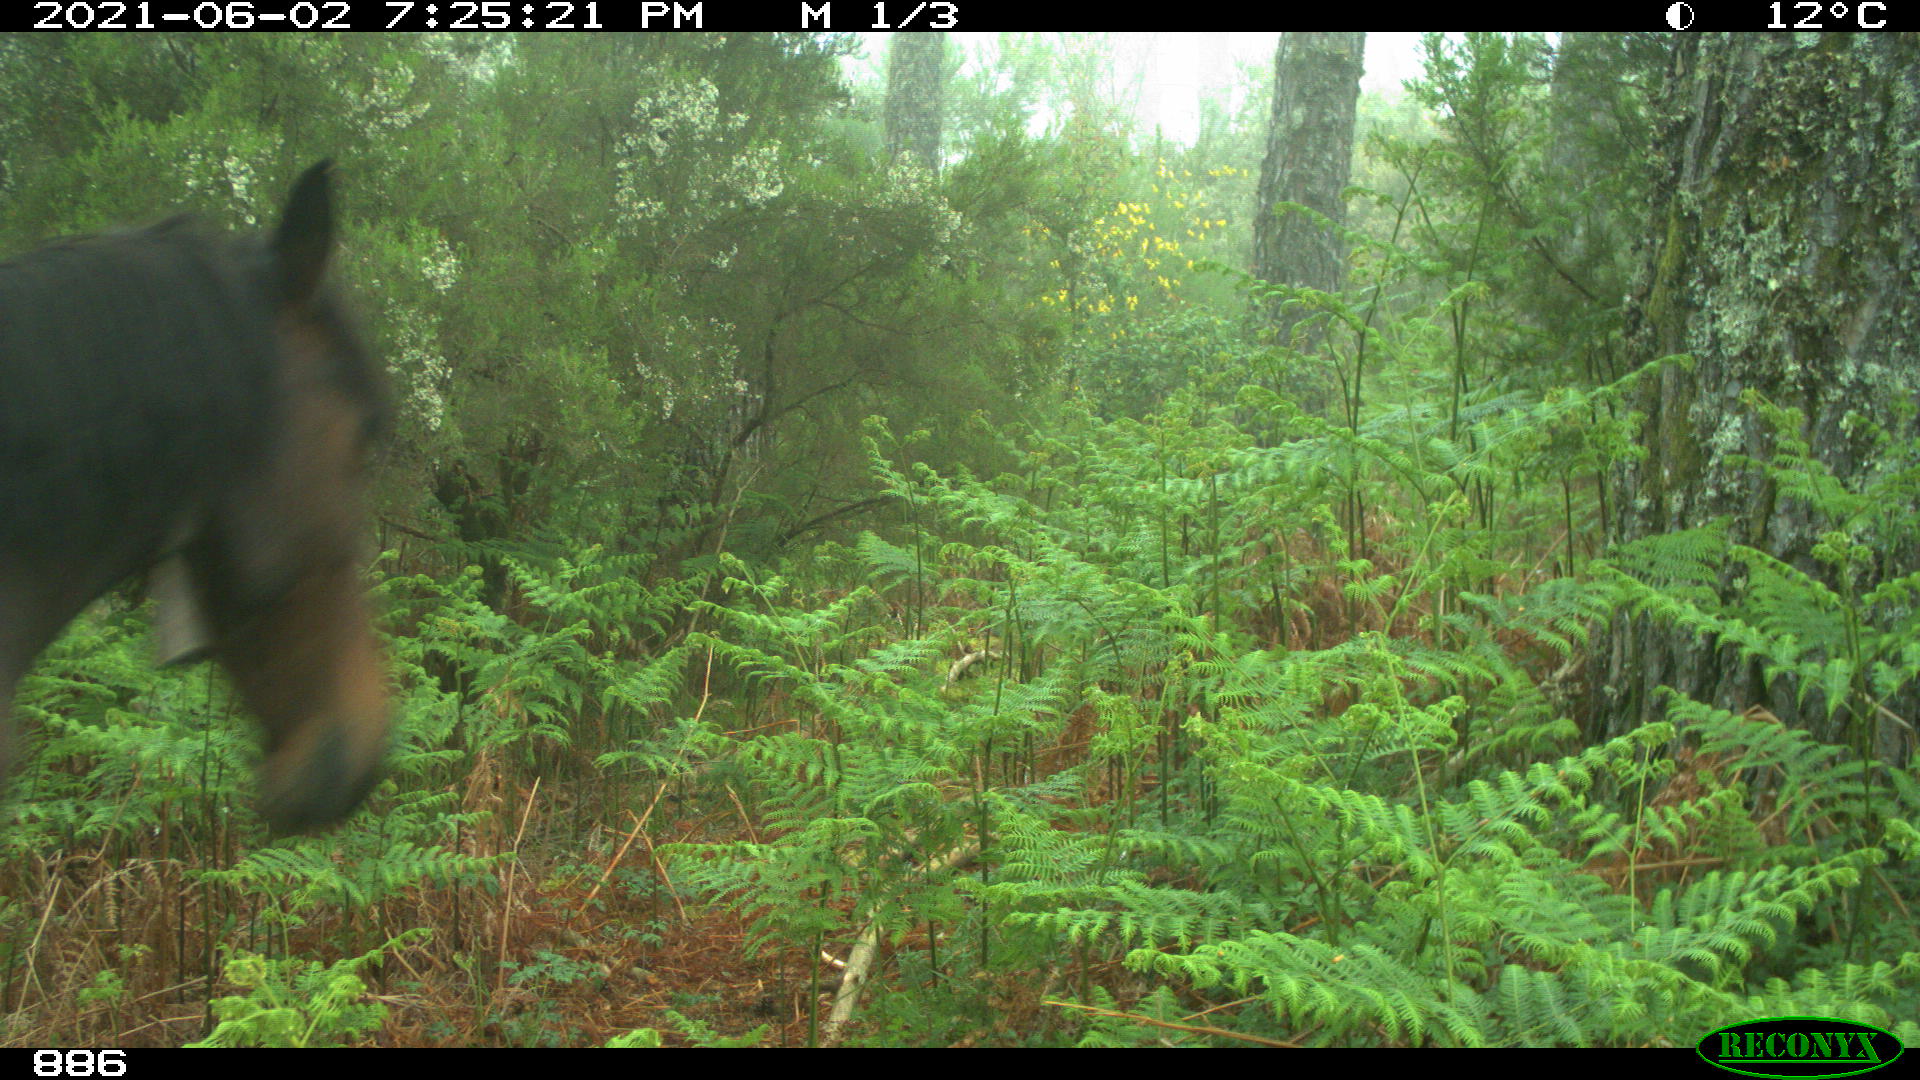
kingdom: Animalia
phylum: Chordata
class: Mammalia
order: Perissodactyla
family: Equidae
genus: Equus
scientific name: Equus caballus
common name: Horse
